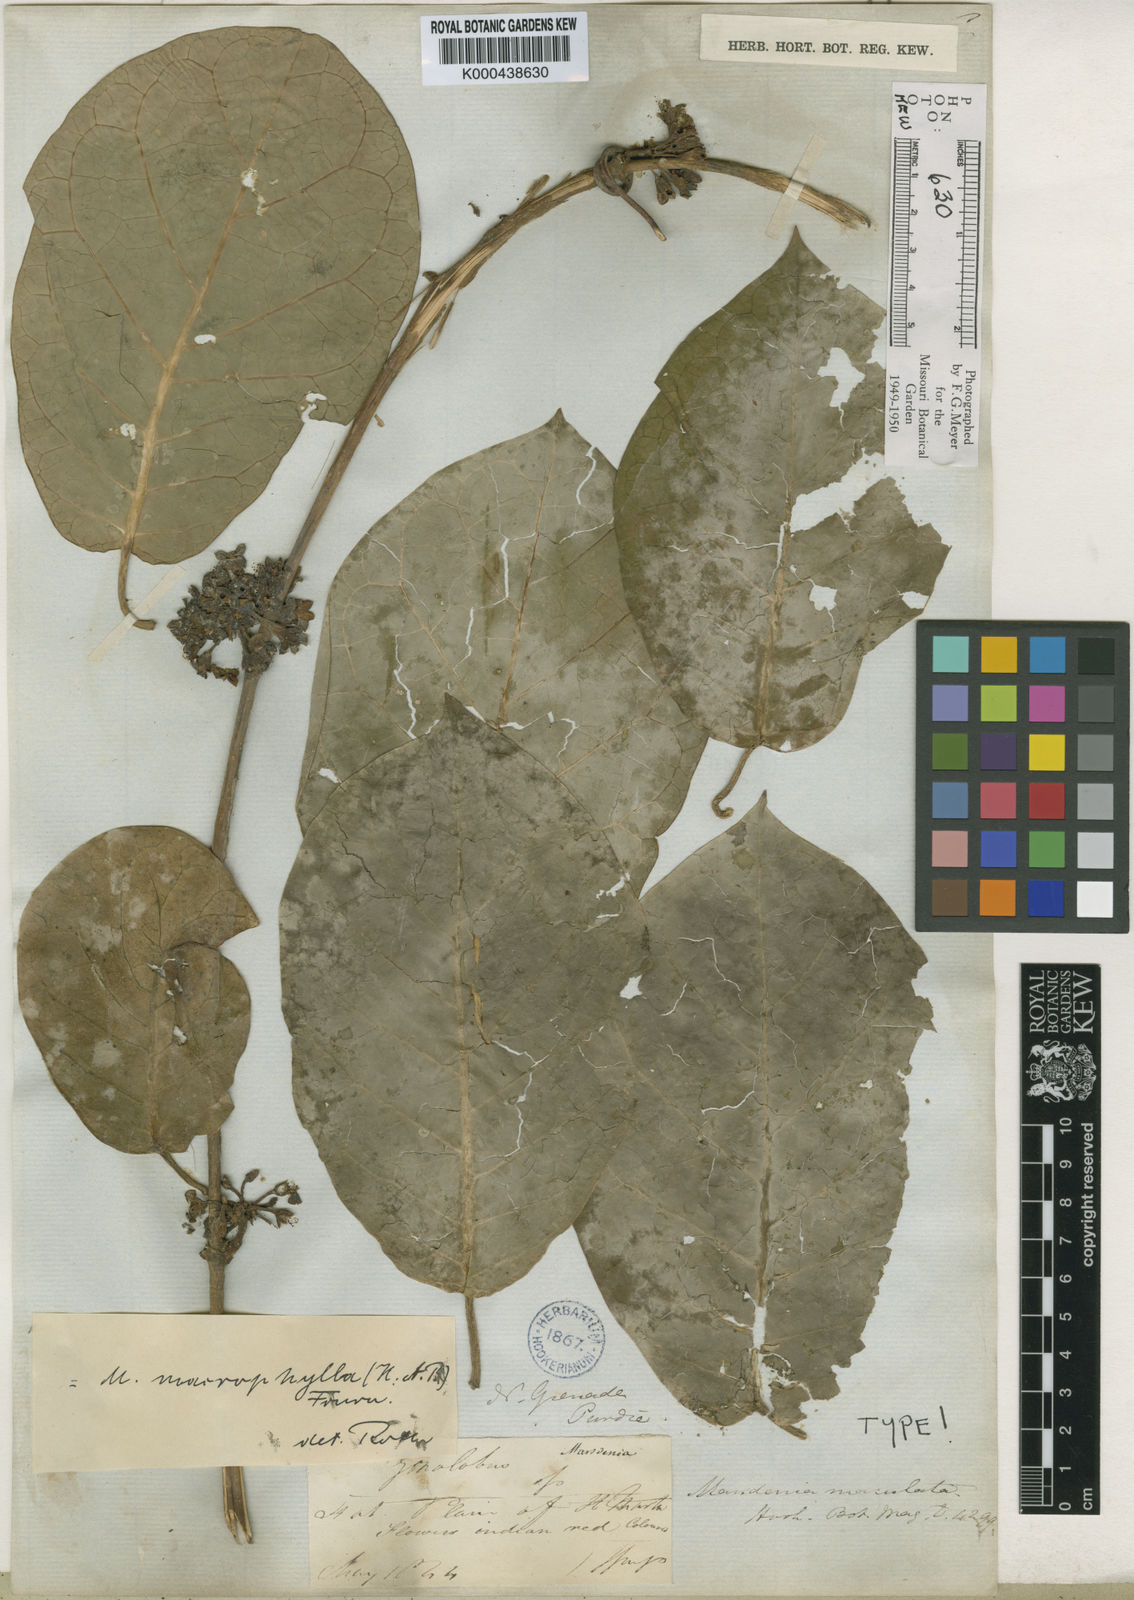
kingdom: Plantae
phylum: Tracheophyta
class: Magnoliopsida
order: Gentianales
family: Apocynaceae
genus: Ruehssia
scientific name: Ruehssia macrophylla
